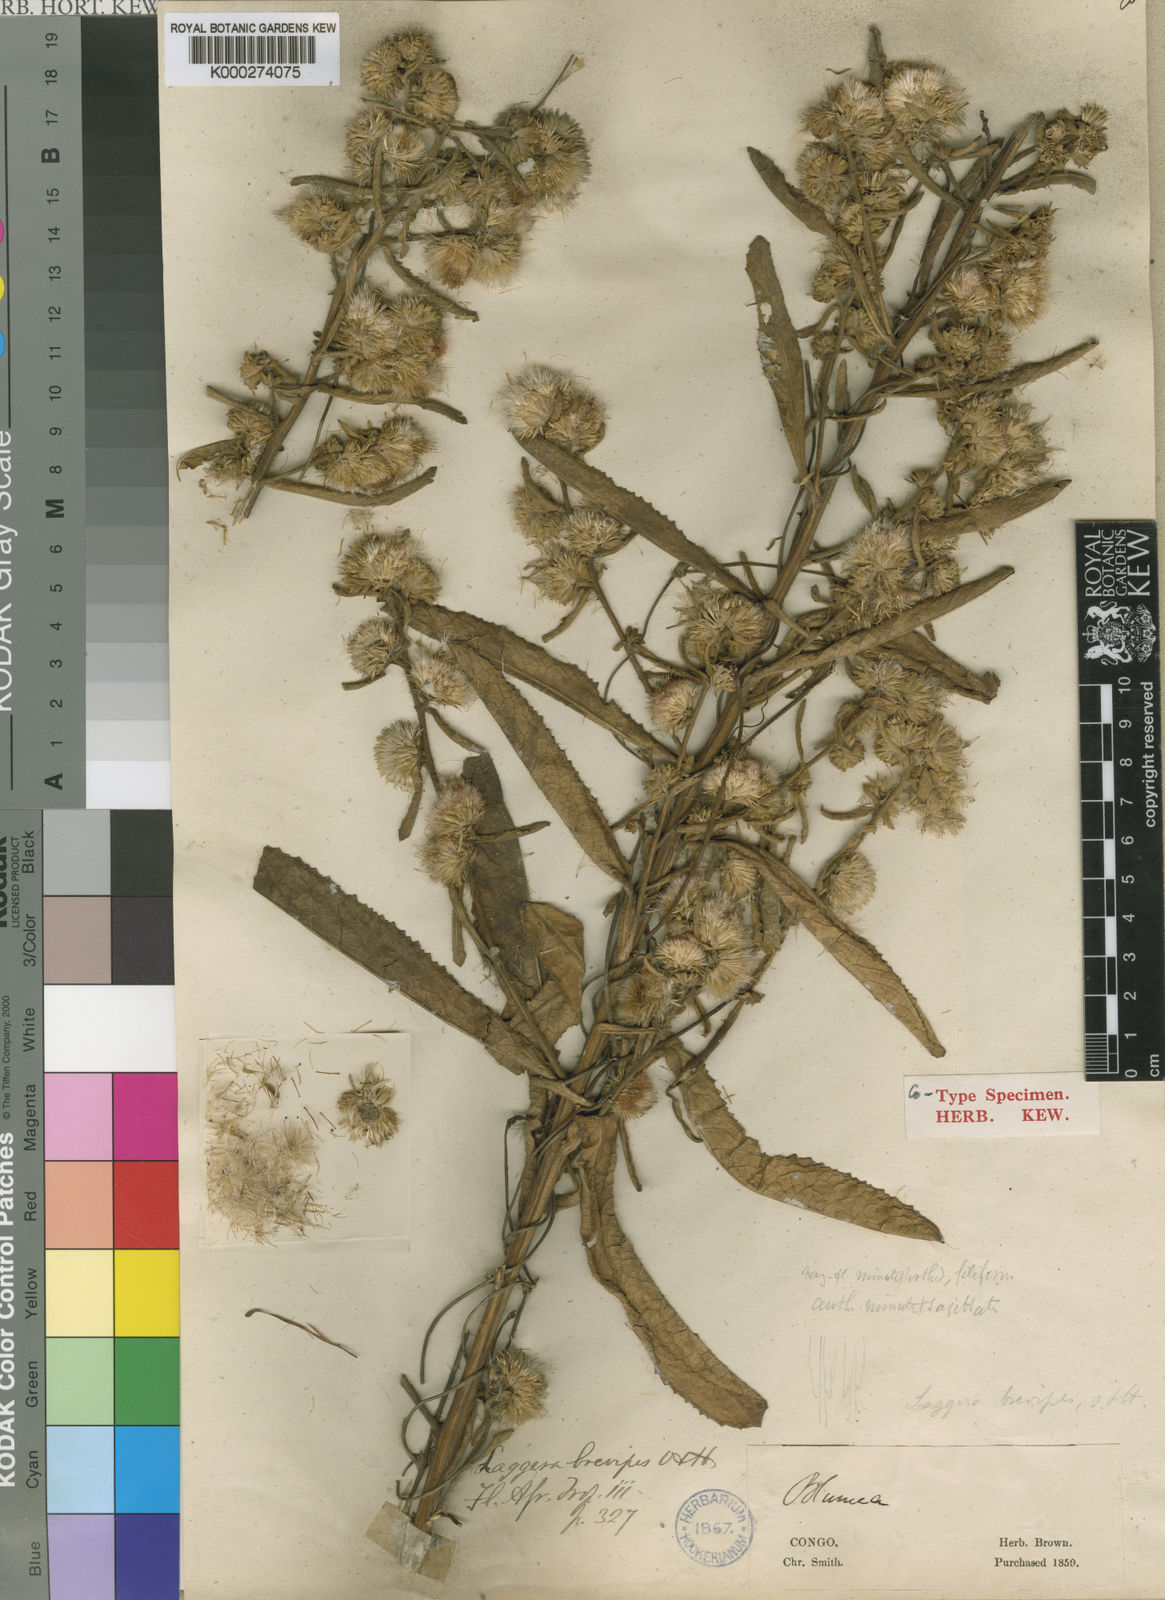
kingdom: Plantae
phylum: Tracheophyta
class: Magnoliopsida
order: Asterales
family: Asteraceae
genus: Laggera
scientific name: Laggera brevipes
